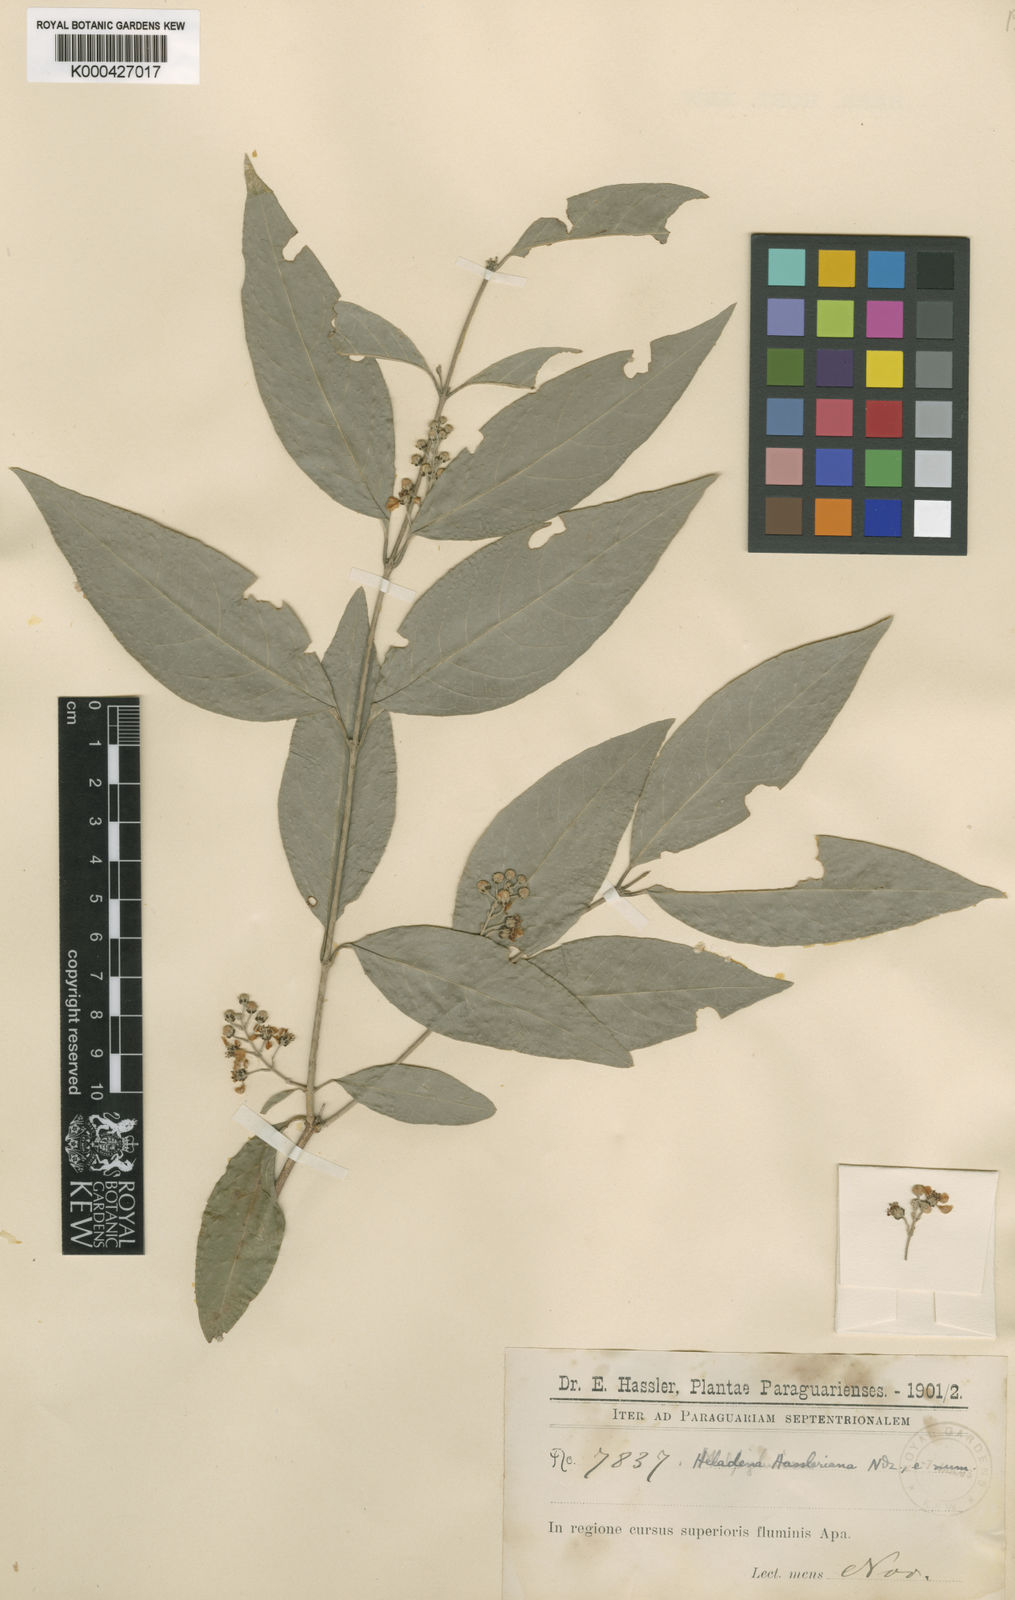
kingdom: Plantae
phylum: Tracheophyta
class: Magnoliopsida
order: Malpighiales
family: Malpighiaceae
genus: Carolus
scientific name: Carolus chlorocarpus
